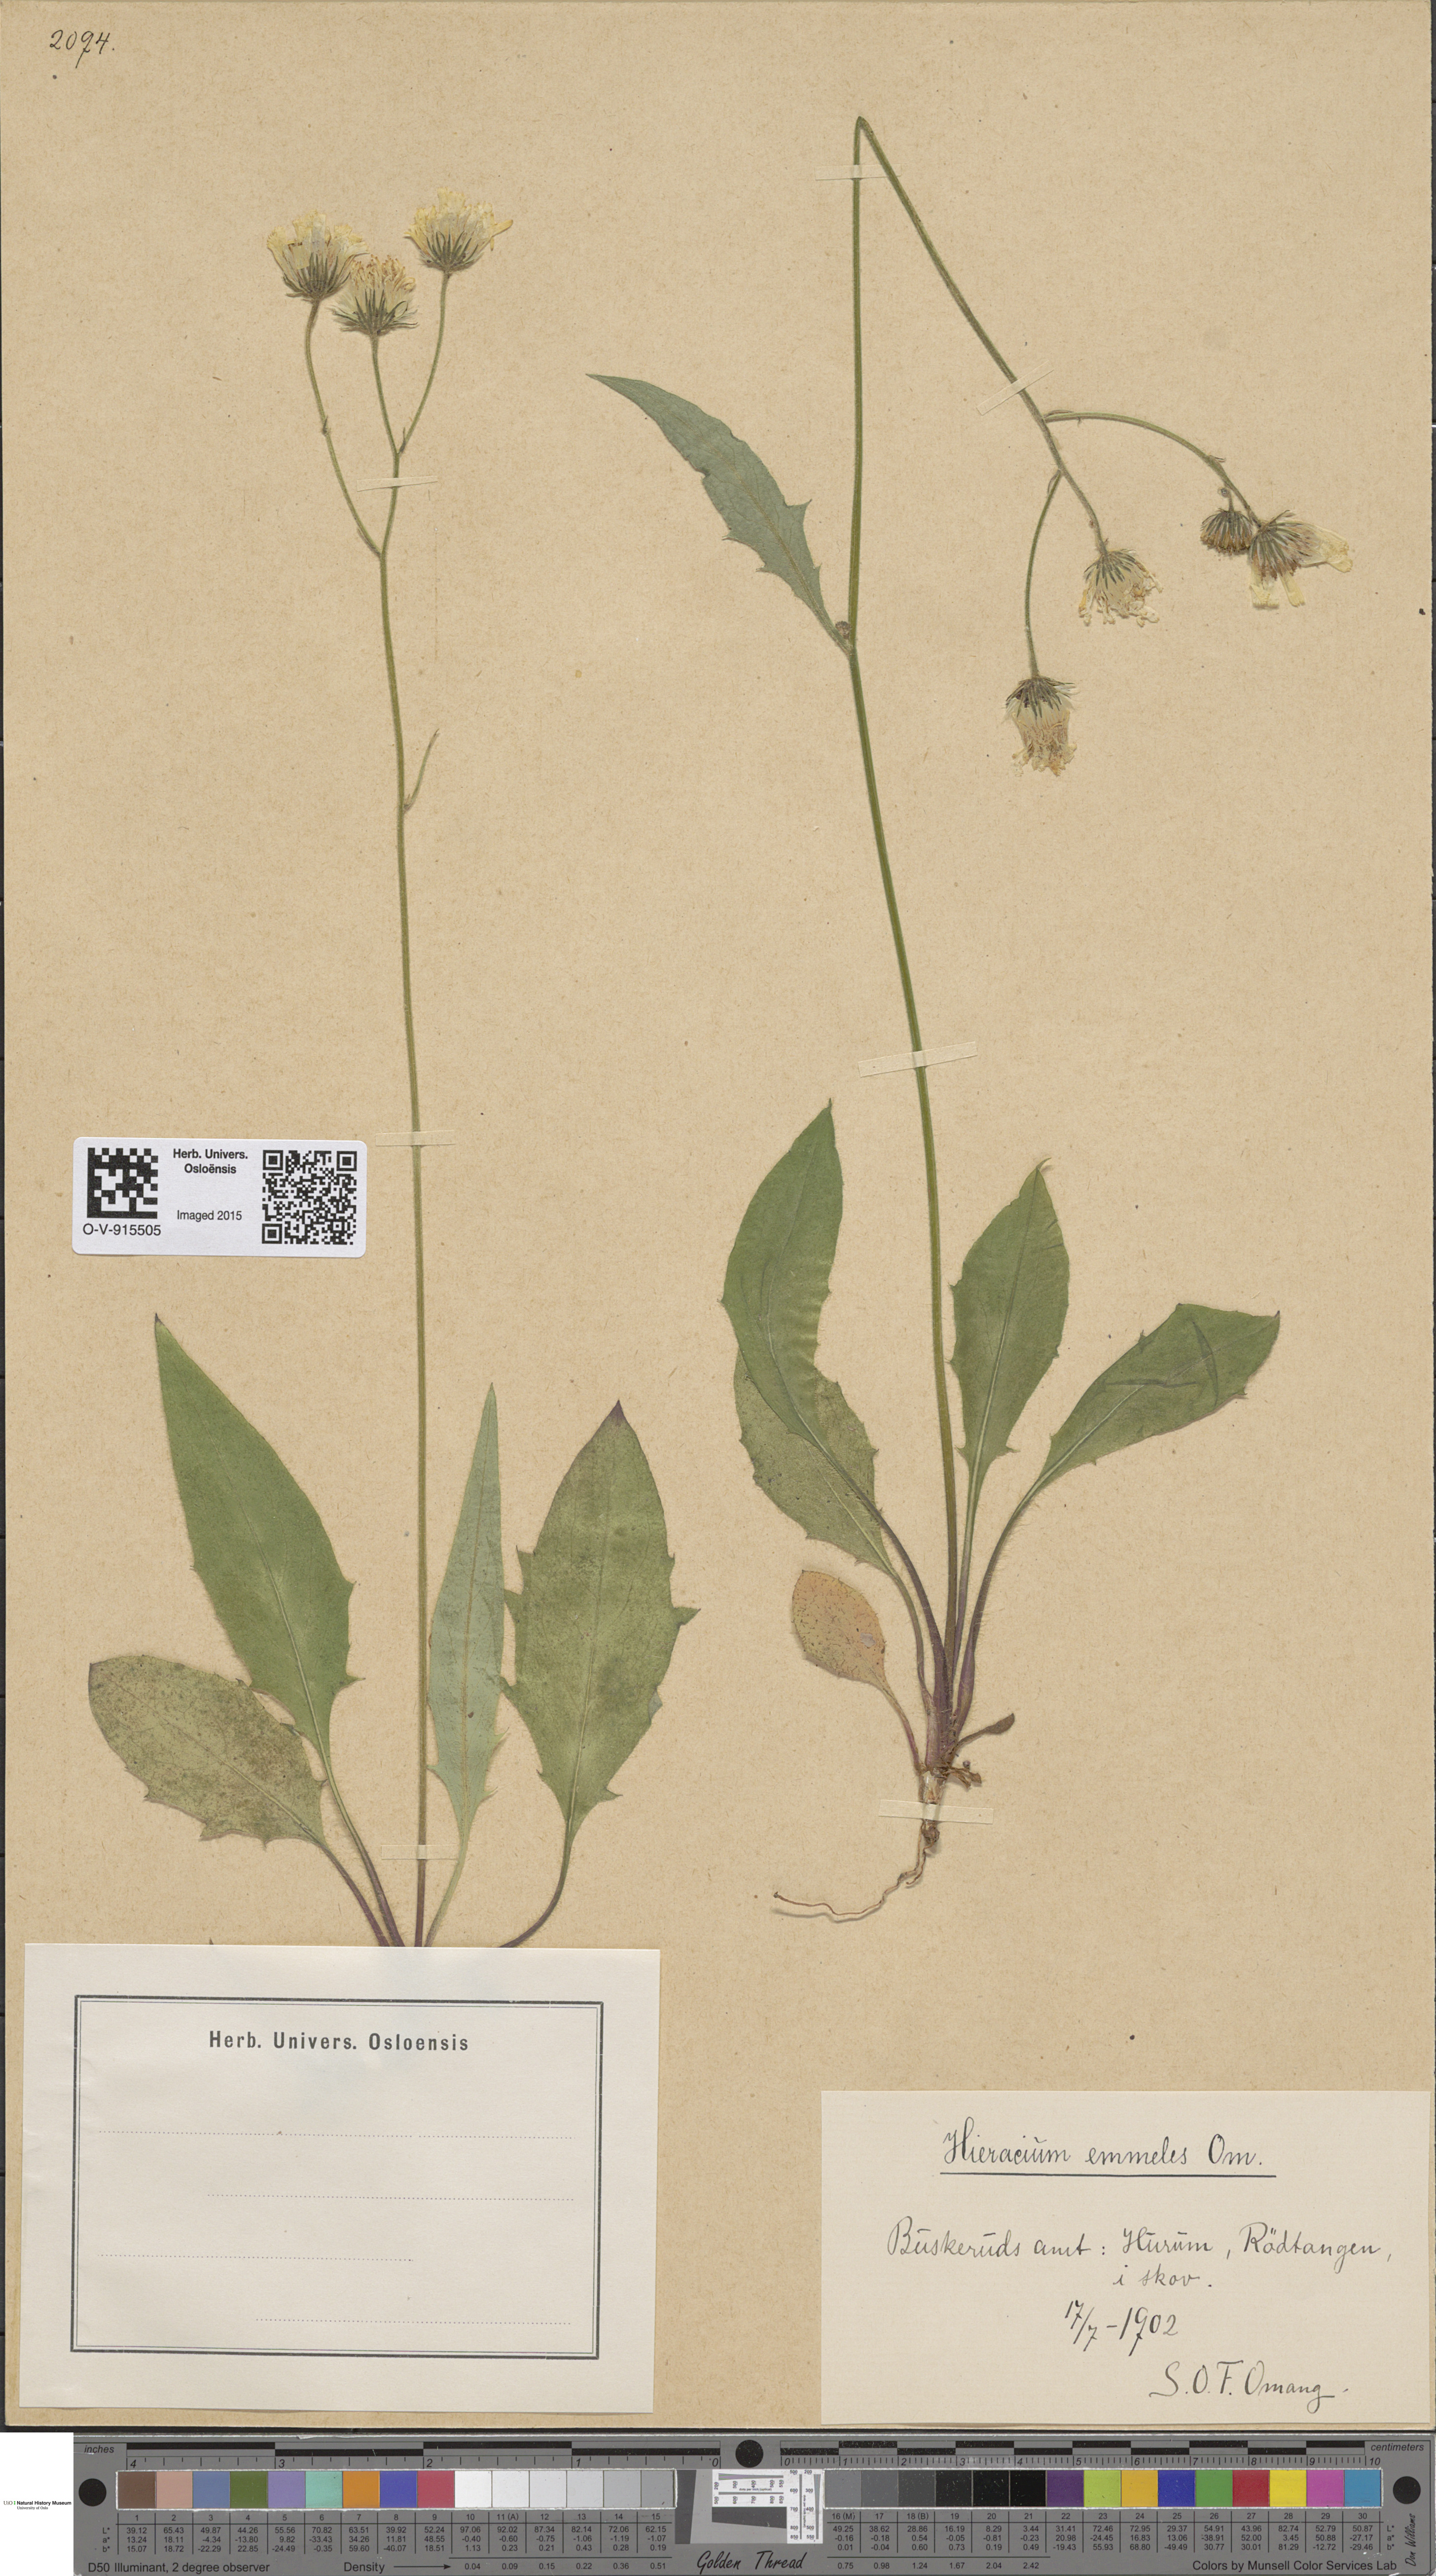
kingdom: Plantae
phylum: Tracheophyta
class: Magnoliopsida
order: Asterales
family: Asteraceae
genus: Hieracium
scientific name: Hieracium
